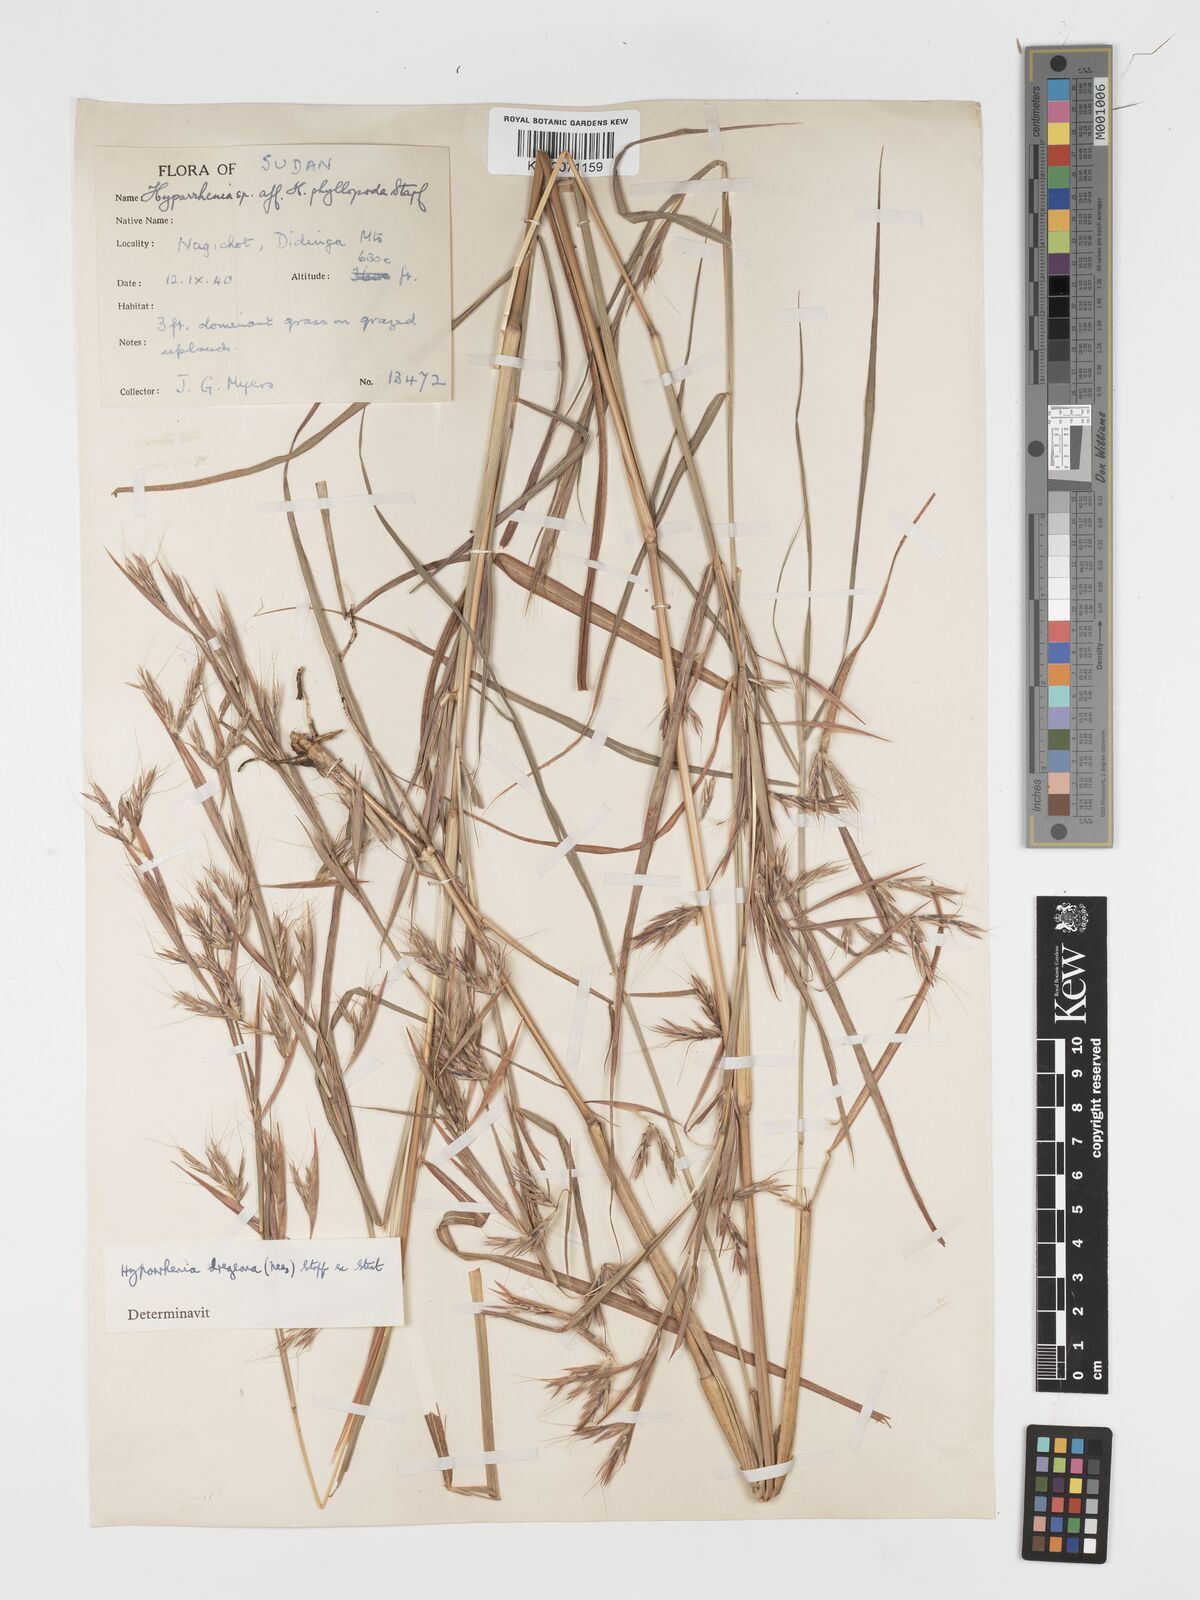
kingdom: Plantae
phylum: Tracheophyta
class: Liliopsida
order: Poales
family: Poaceae
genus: Hyparrhenia
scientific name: Hyparrhenia dregeana
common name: Silky thatching grass
